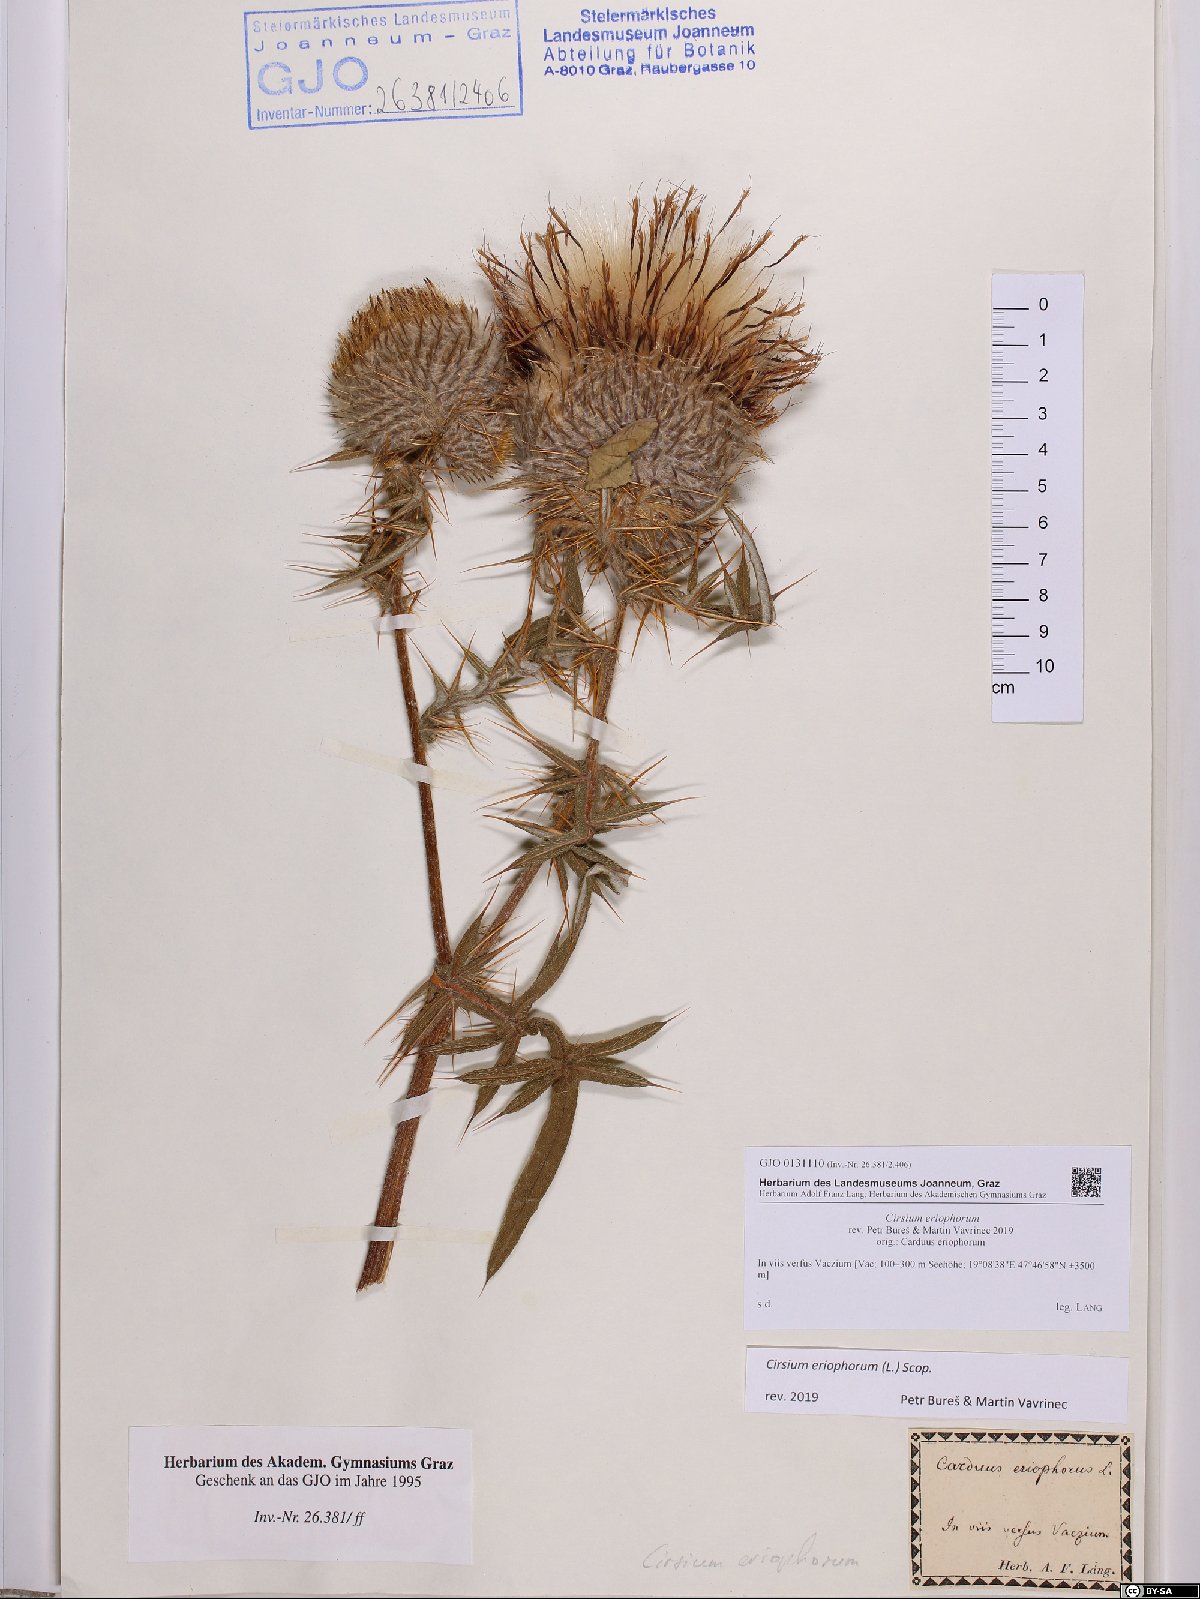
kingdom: Plantae
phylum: Tracheophyta
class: Magnoliopsida
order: Asterales
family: Asteraceae
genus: Lophiolepis
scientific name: Lophiolepis eriophora
